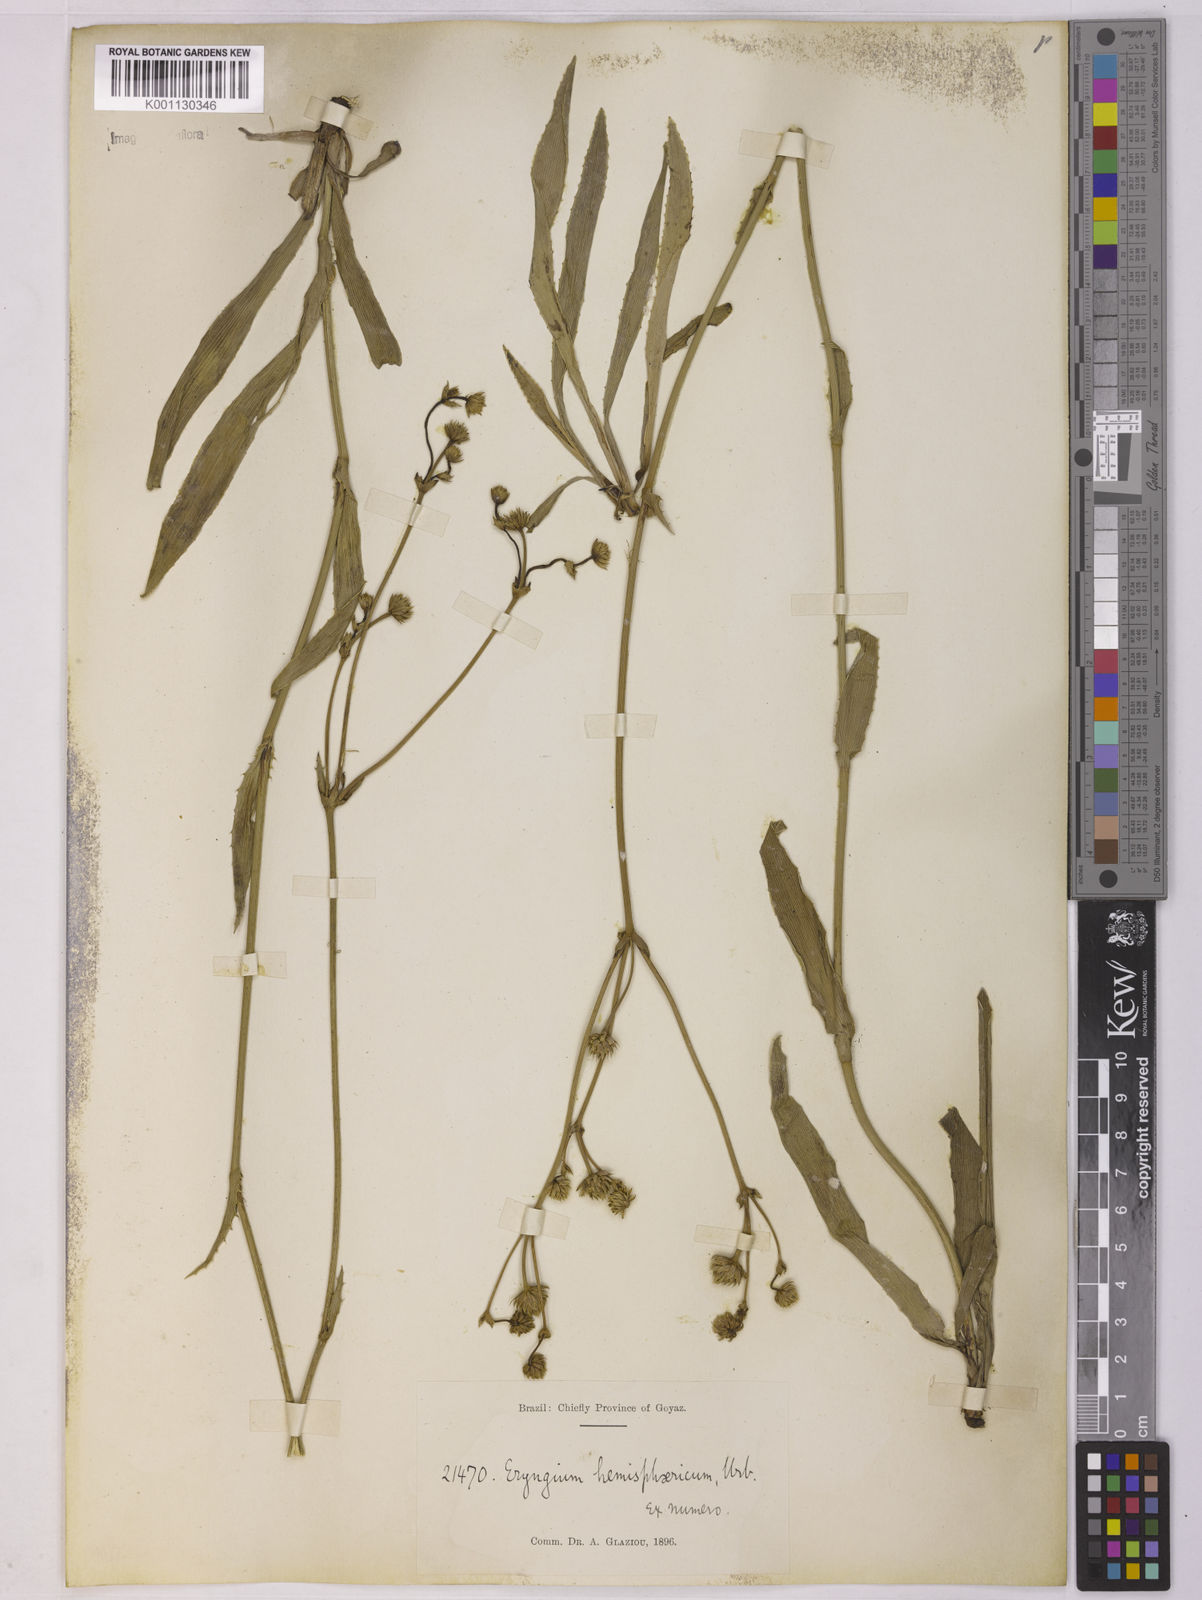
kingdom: Plantae
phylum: Tracheophyta
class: Magnoliopsida
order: Apiales
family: Apiaceae
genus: Eryngium
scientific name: Eryngium hemisphaericum
